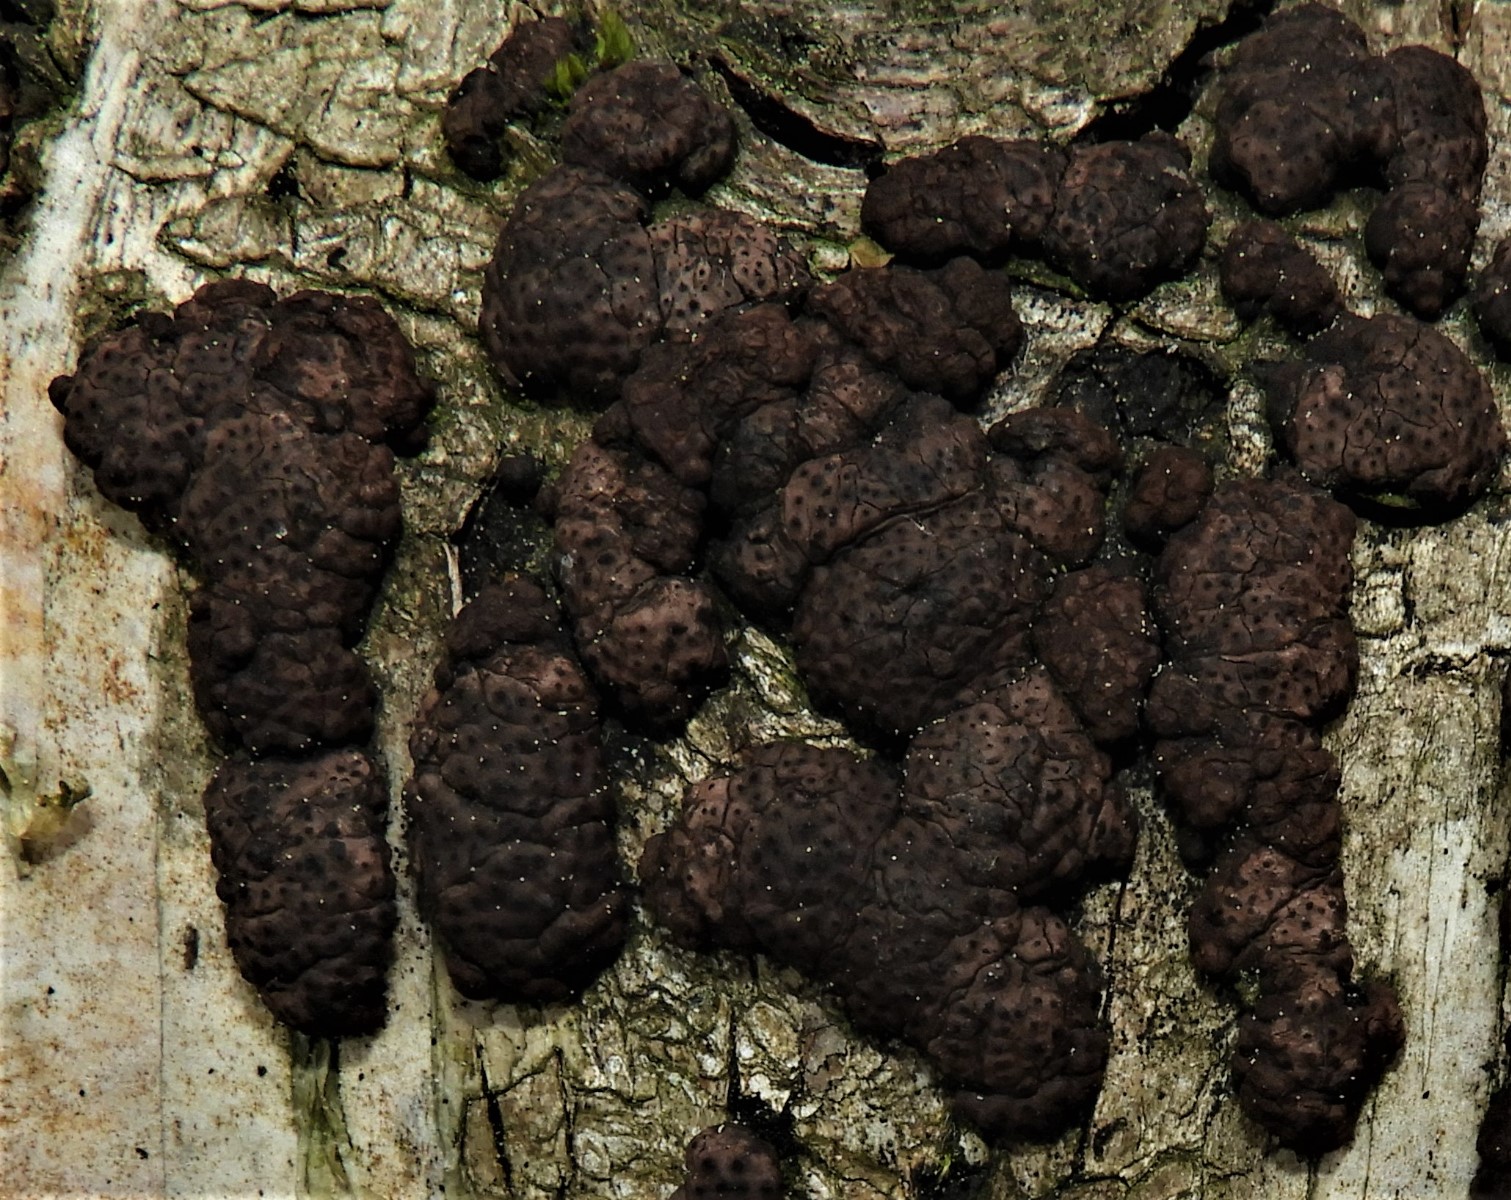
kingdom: Fungi
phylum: Ascomycota
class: Sordariomycetes
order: Xylariales
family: Hypoxylaceae
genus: Jackrogersella
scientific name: Jackrogersella cohaerens
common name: sammenflydende kulbær
